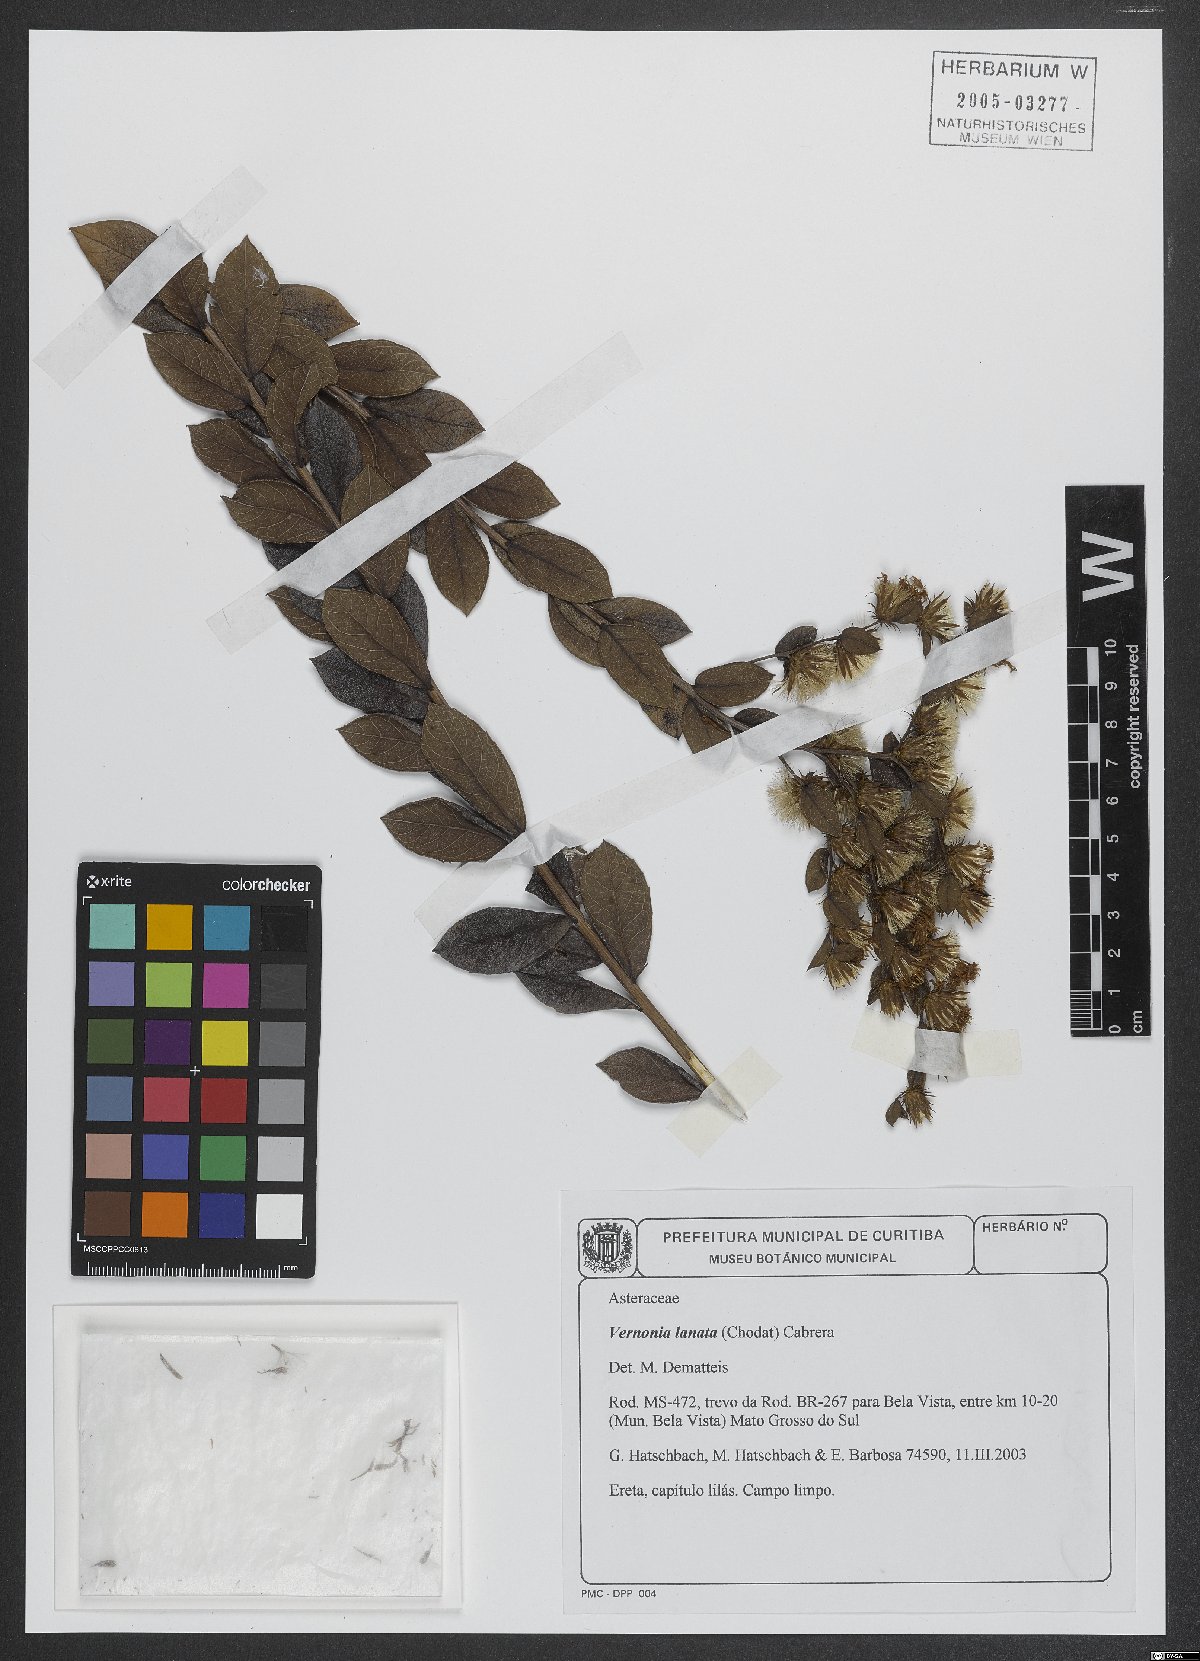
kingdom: Plantae
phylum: Tracheophyta
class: Magnoliopsida
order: Asterales
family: Asteraceae
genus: Lessingianthus
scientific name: Lessingianthus lanatus
